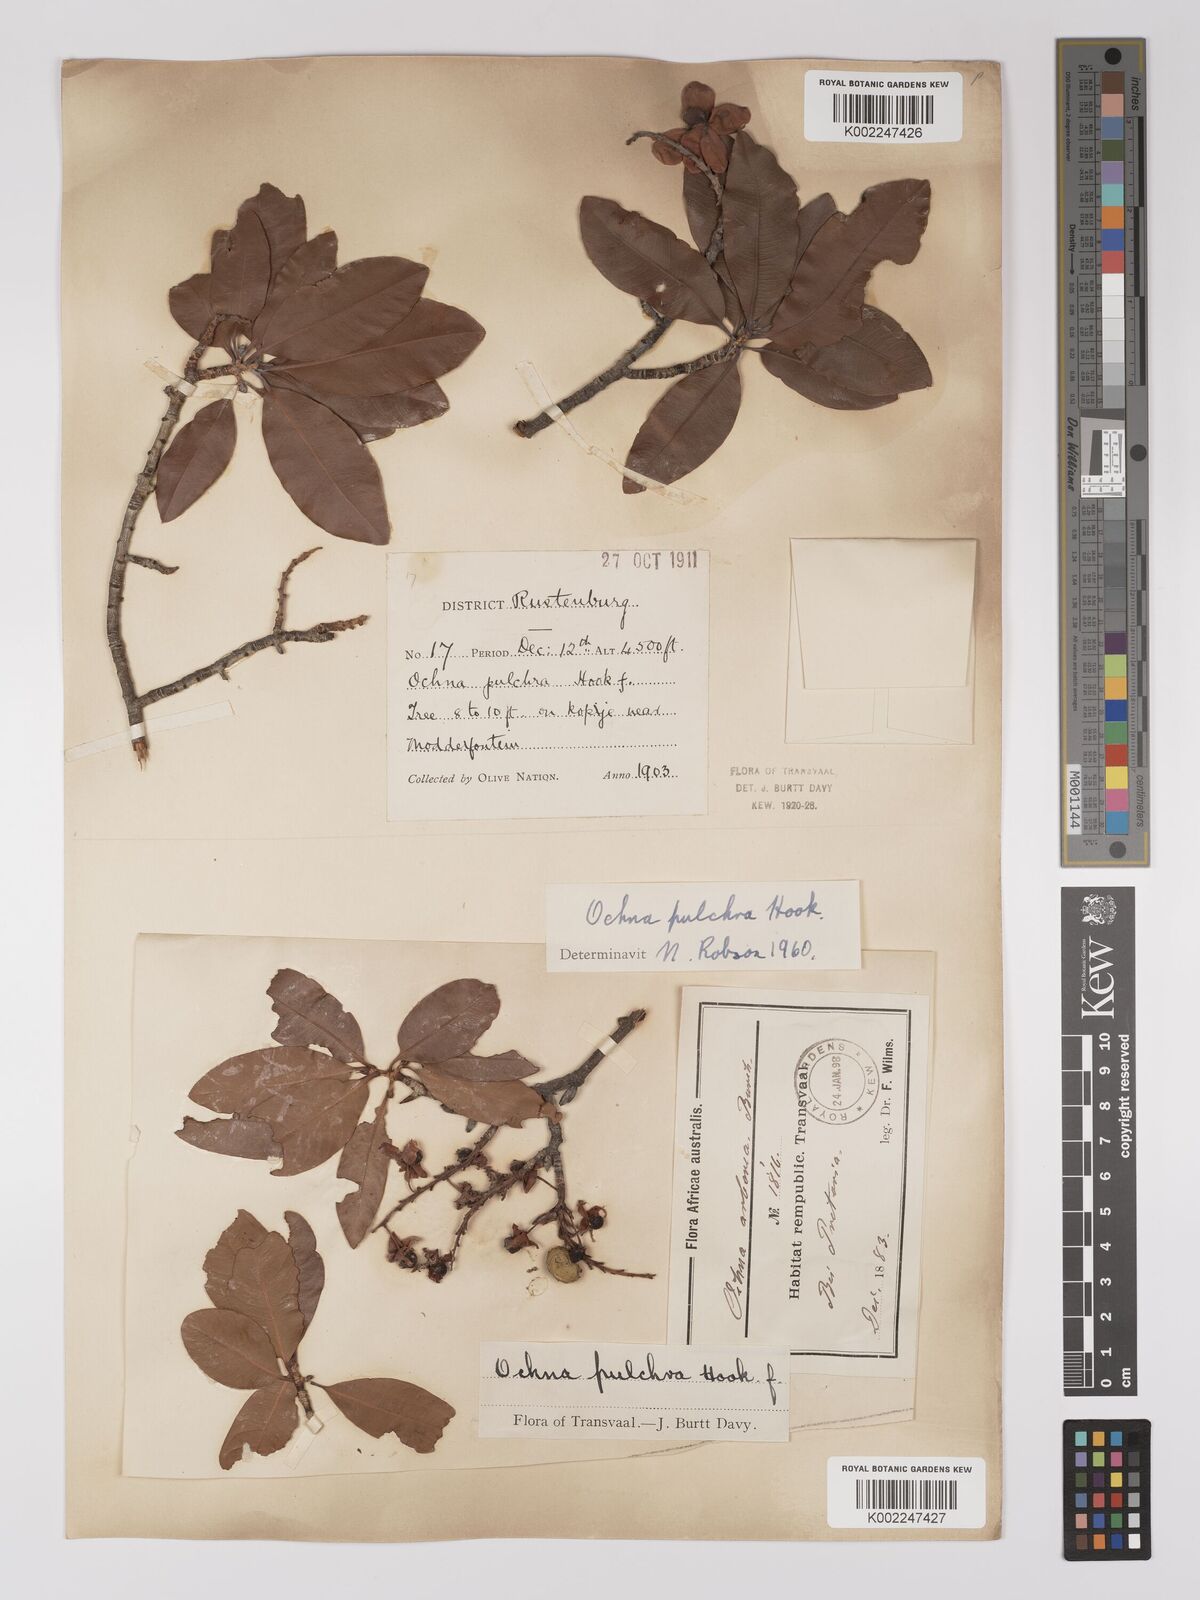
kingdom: Plantae
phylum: Tracheophyta
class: Magnoliopsida
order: Malpighiales
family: Ochnaceae
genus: Ochna
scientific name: Ochna pulchra
